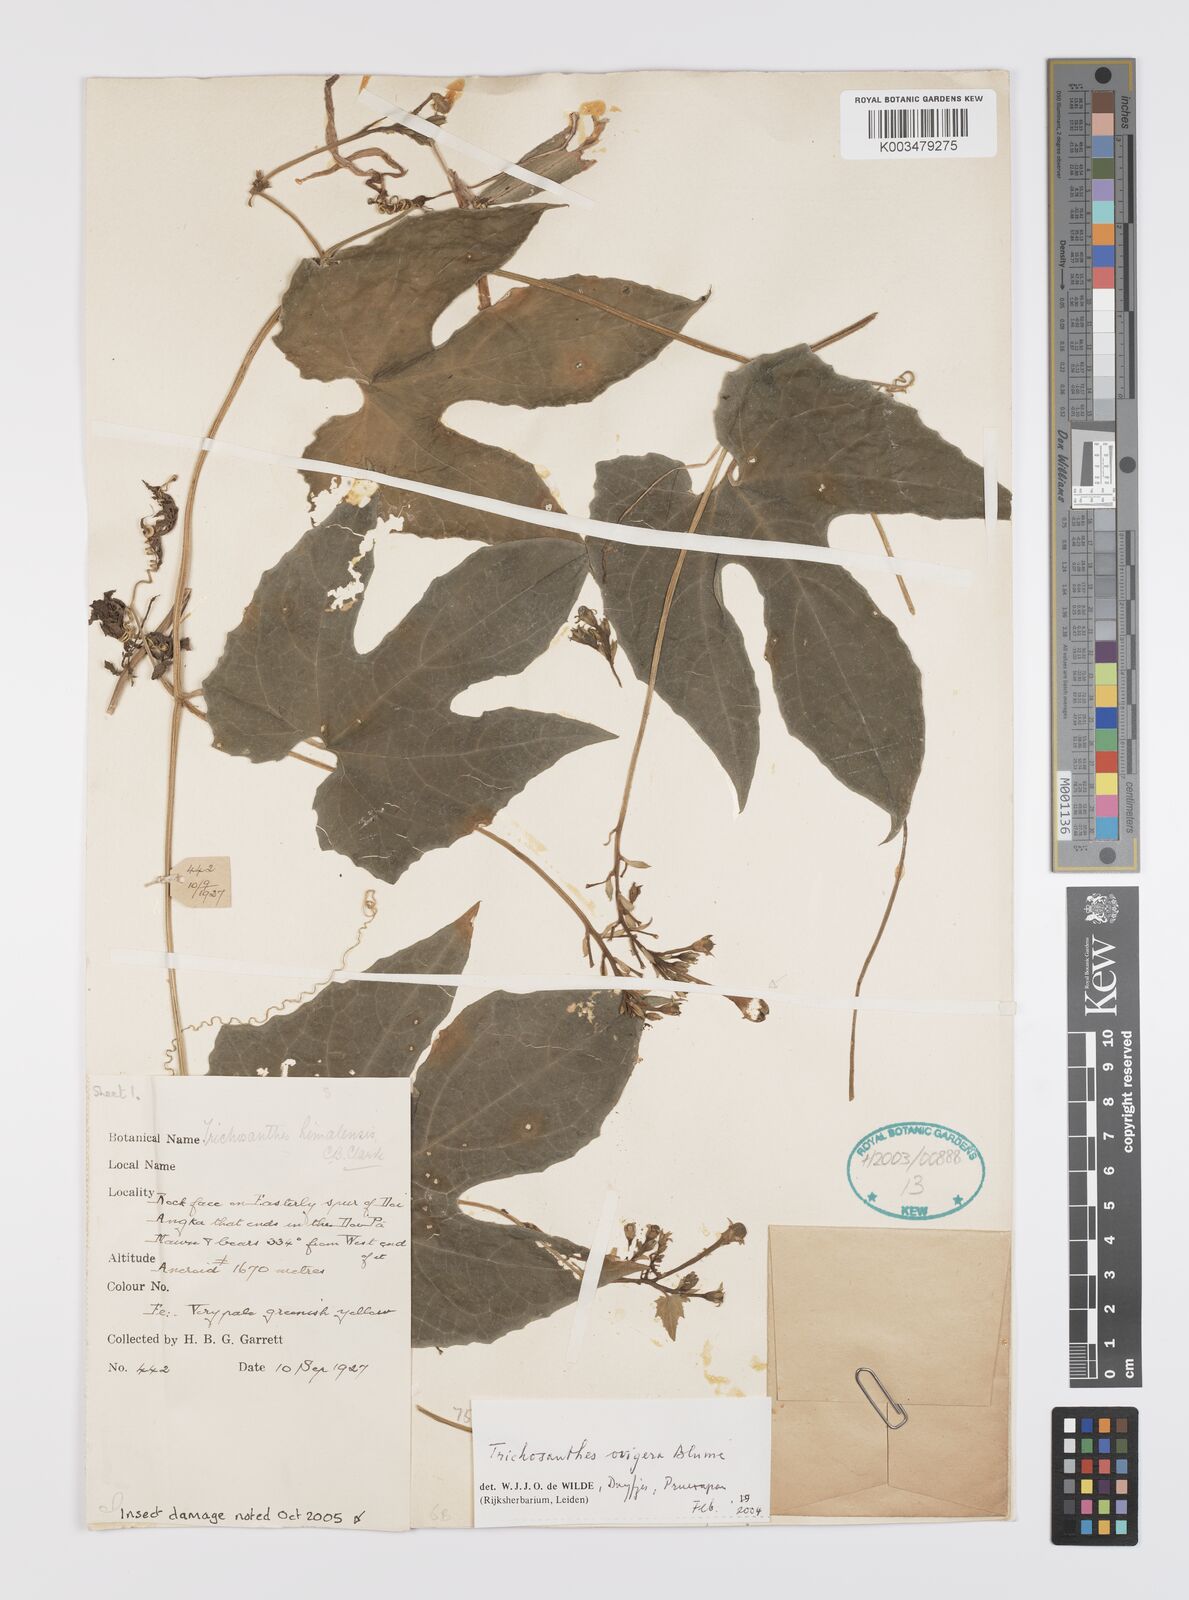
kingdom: Plantae
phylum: Tracheophyta
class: Magnoliopsida
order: Cucurbitales
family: Cucurbitaceae
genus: Trichosanthes
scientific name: Trichosanthes ovigera
